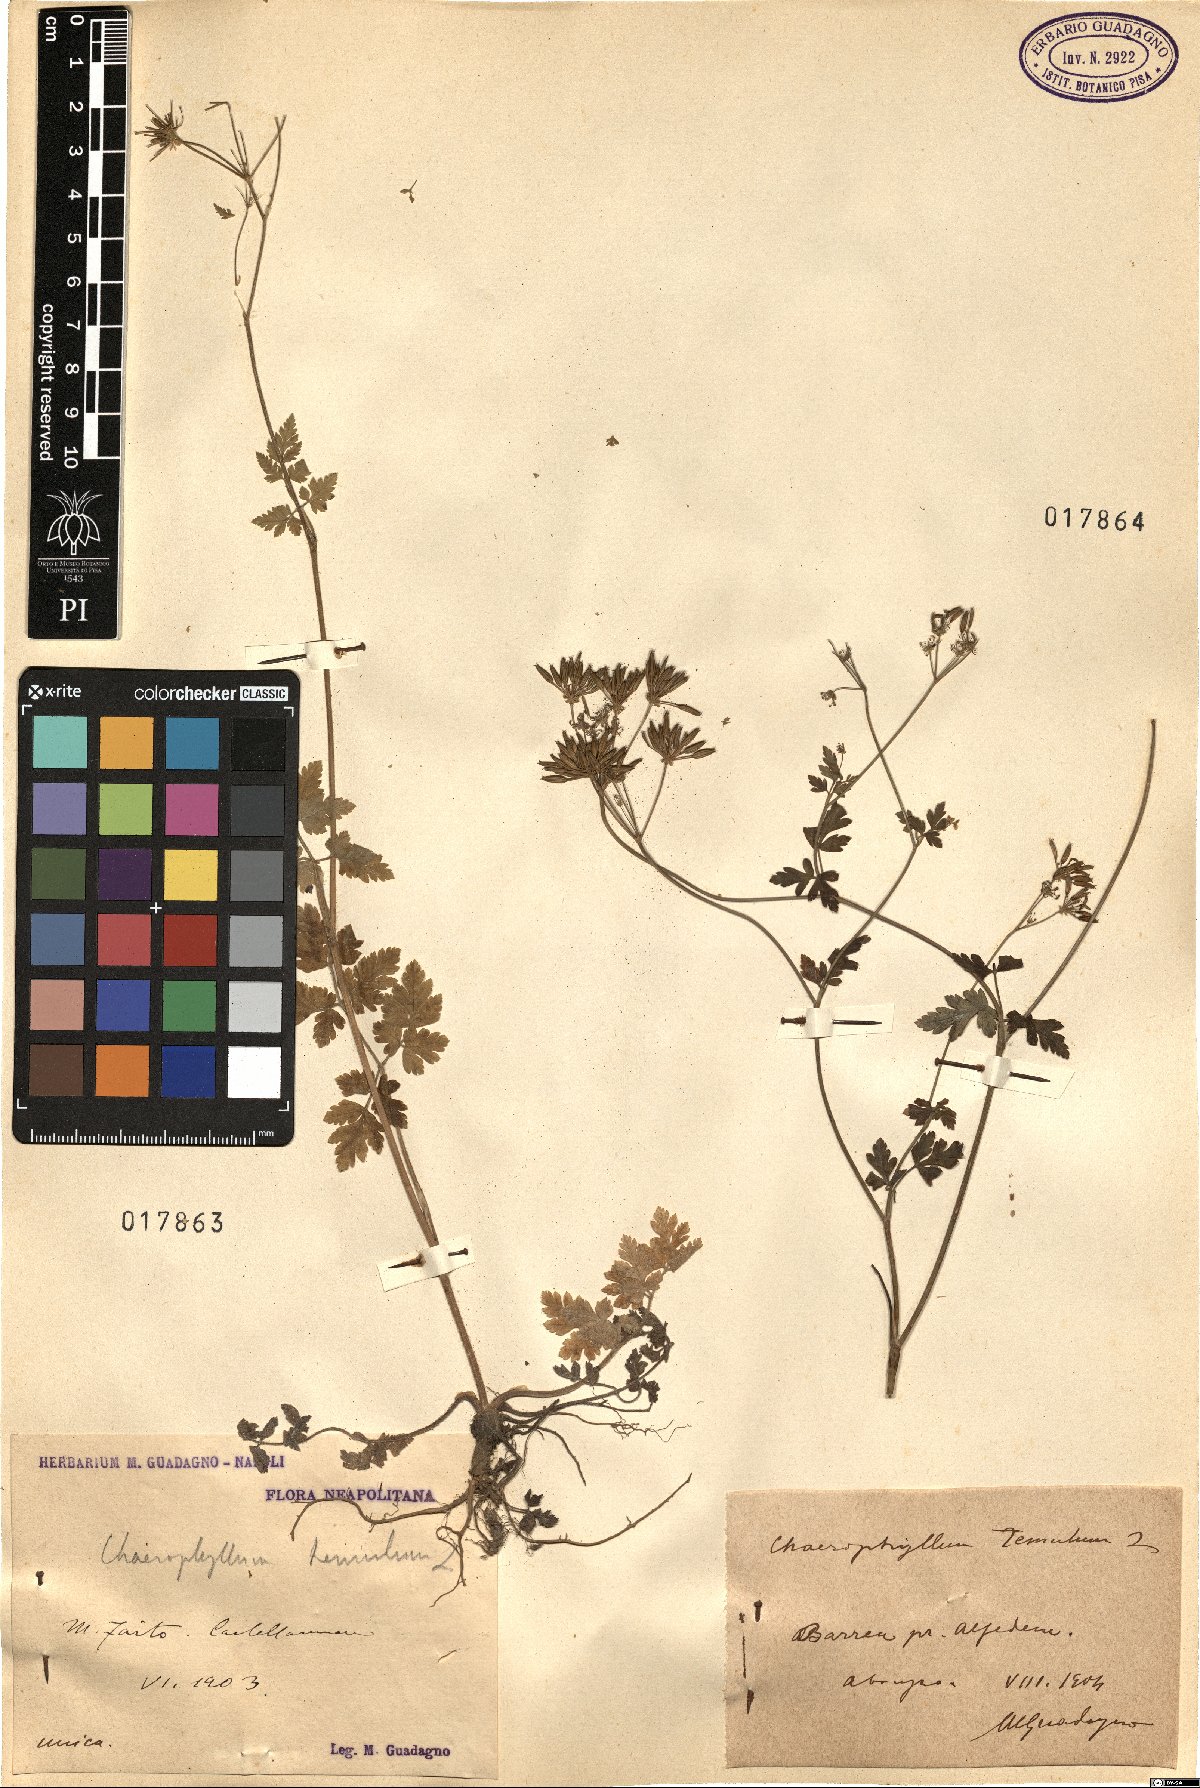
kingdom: Plantae
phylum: Tracheophyta
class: Magnoliopsida
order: Apiales
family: Apiaceae
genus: Chaerophyllum
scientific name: Chaerophyllum temulum
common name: Rough chervil
